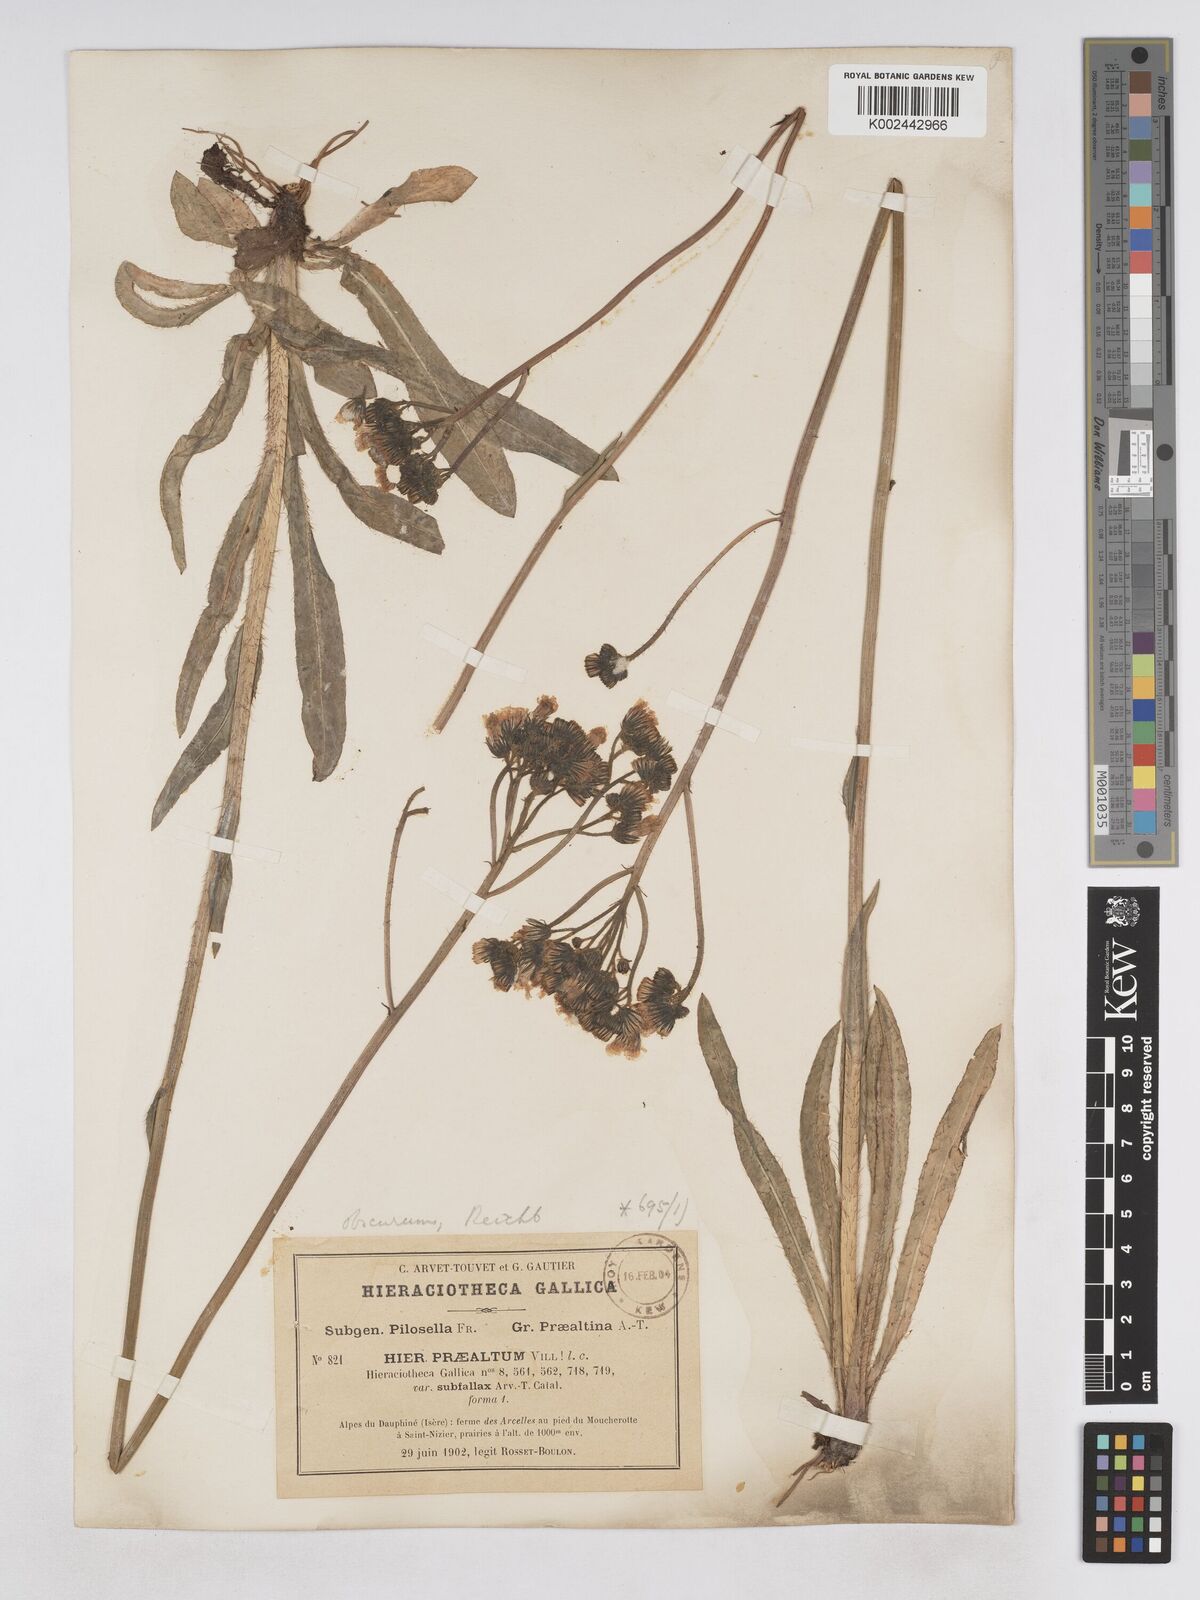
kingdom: Plantae
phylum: Tracheophyta
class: Magnoliopsida
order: Asterales
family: Asteraceae
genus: Pilosella
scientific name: Pilosella piloselloides
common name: Glaucous king-devil
